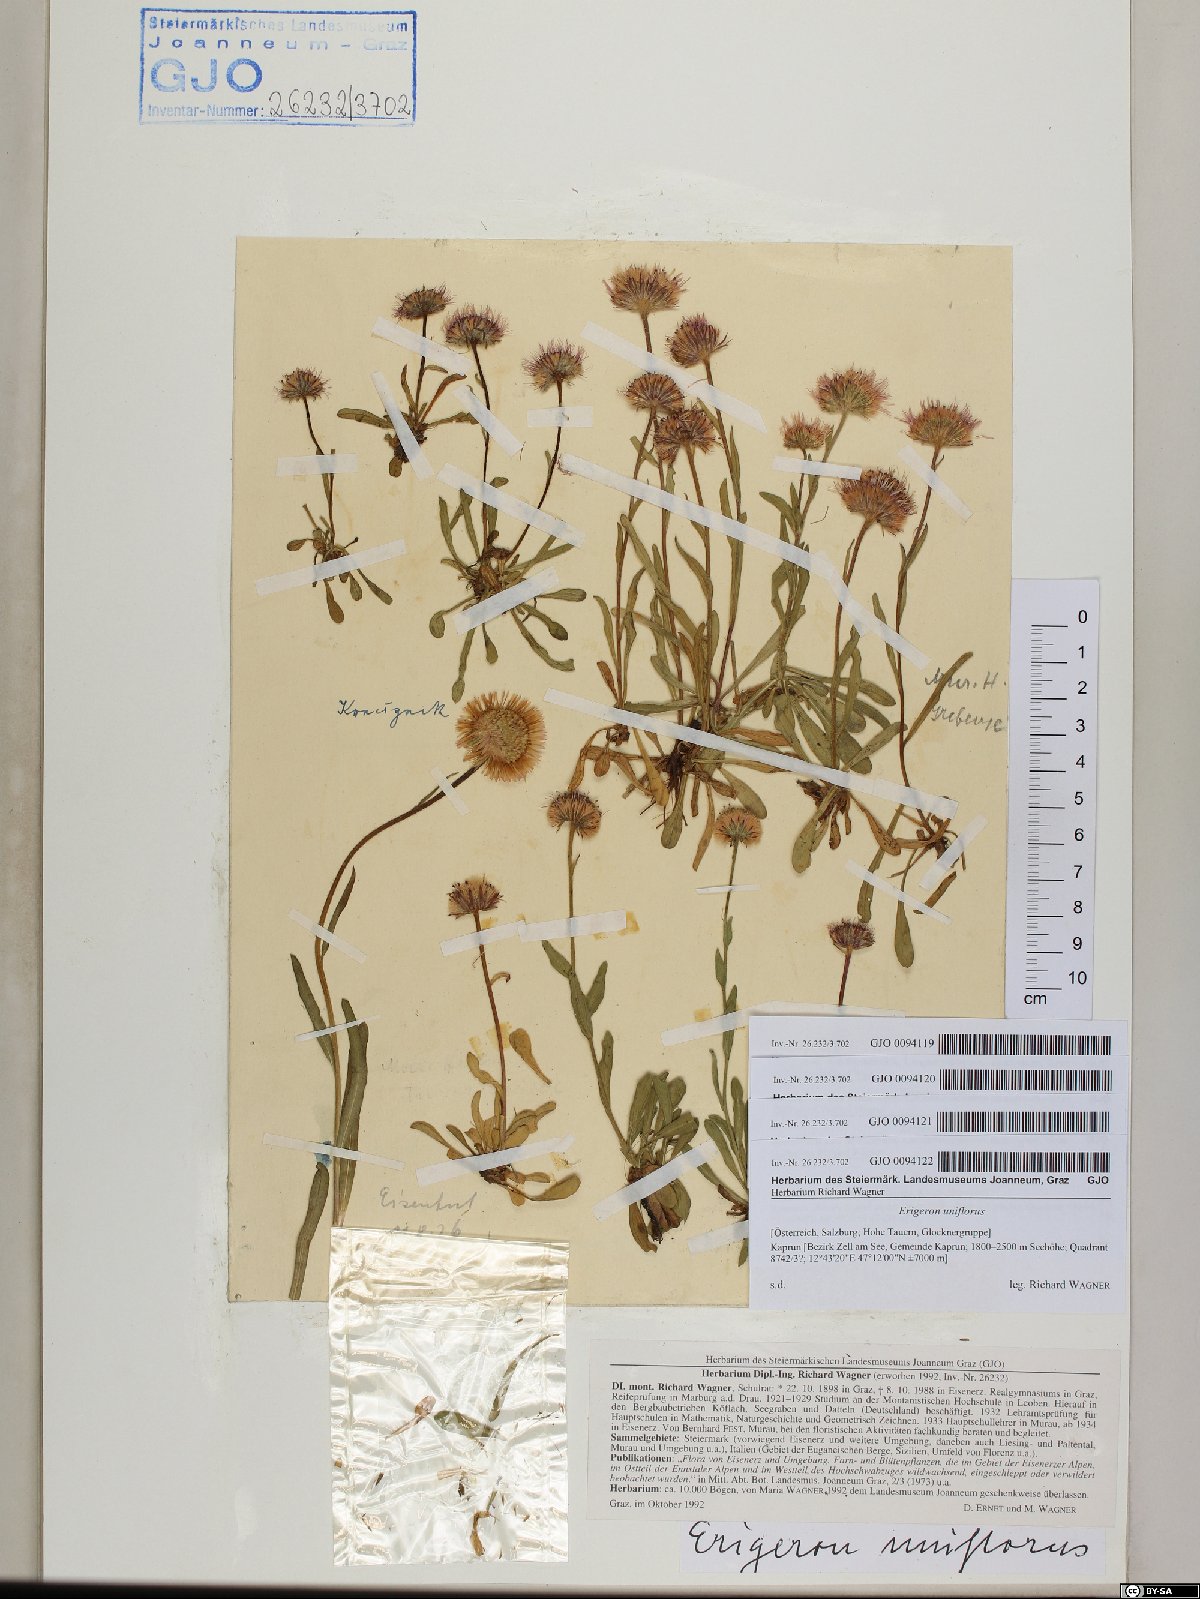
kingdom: Plantae
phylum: Tracheophyta
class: Magnoliopsida
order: Asterales
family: Asteraceae
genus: Erigeron
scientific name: Erigeron uniflorus
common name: Northern daisy
